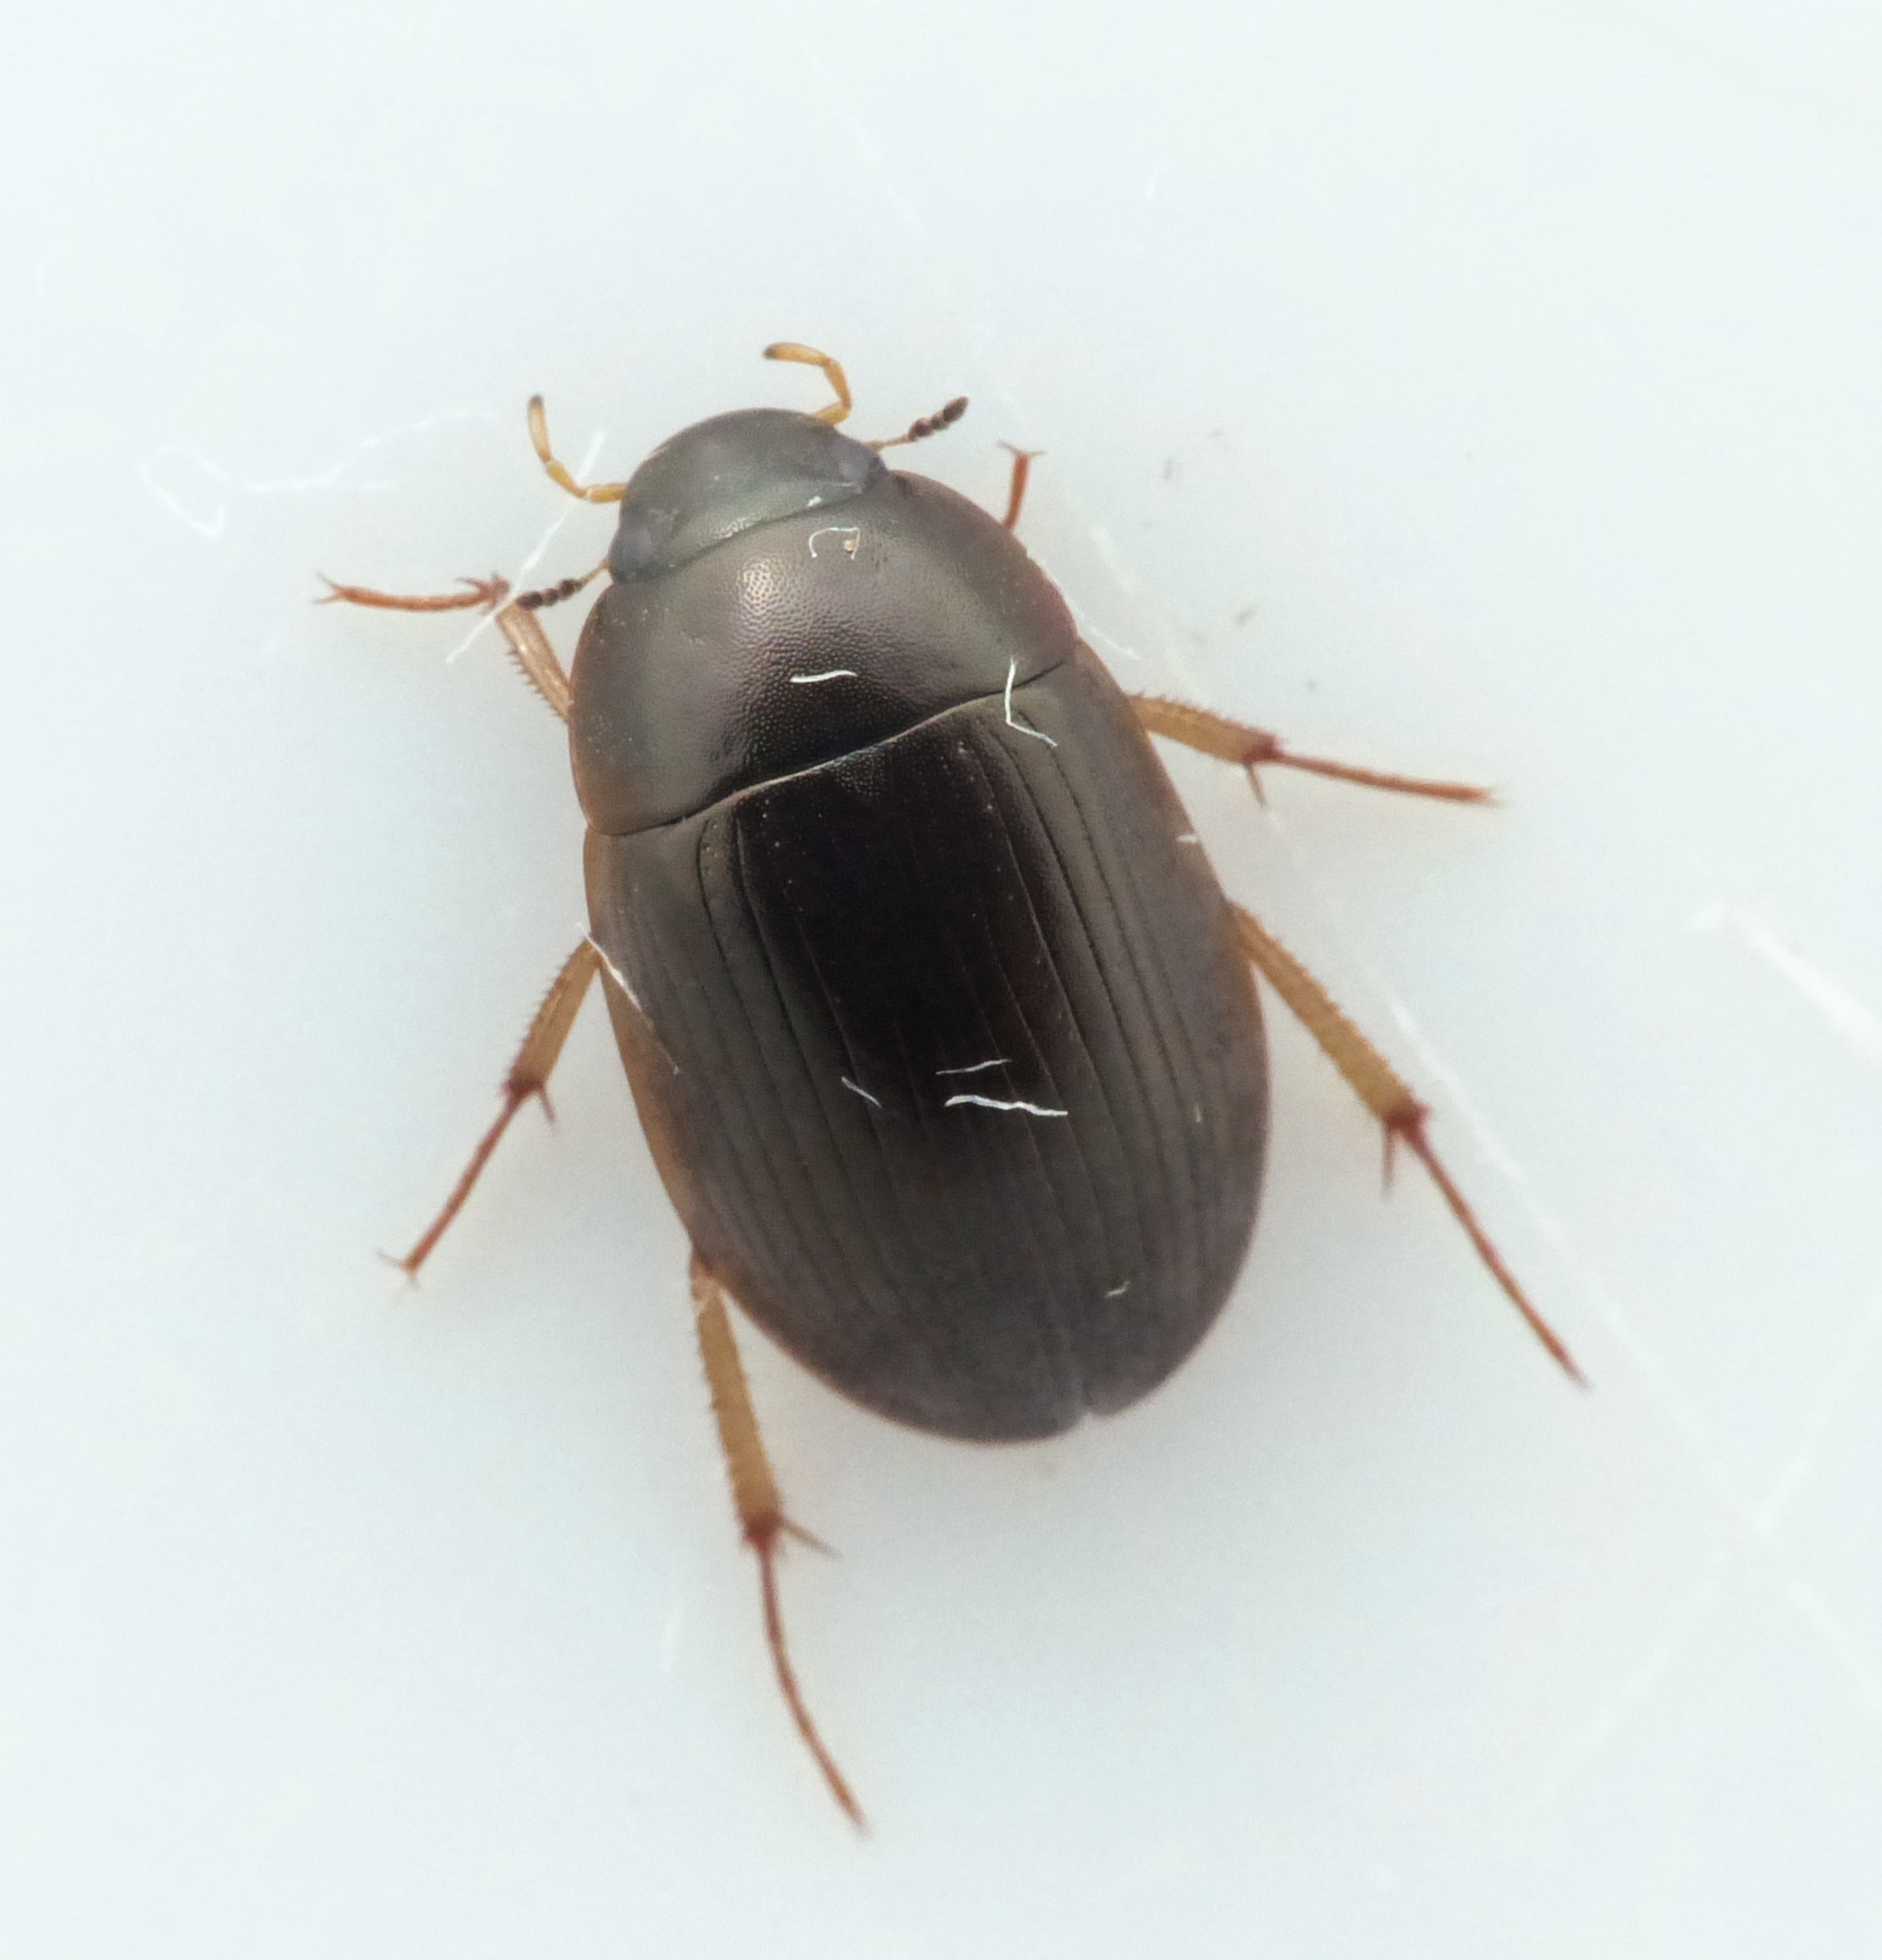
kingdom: Animalia
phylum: Arthropoda
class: Insecta
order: Coleoptera
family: Hydrophilidae
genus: Hydrobius
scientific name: Hydrobius fuscipes
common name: Almindelig vandkær
